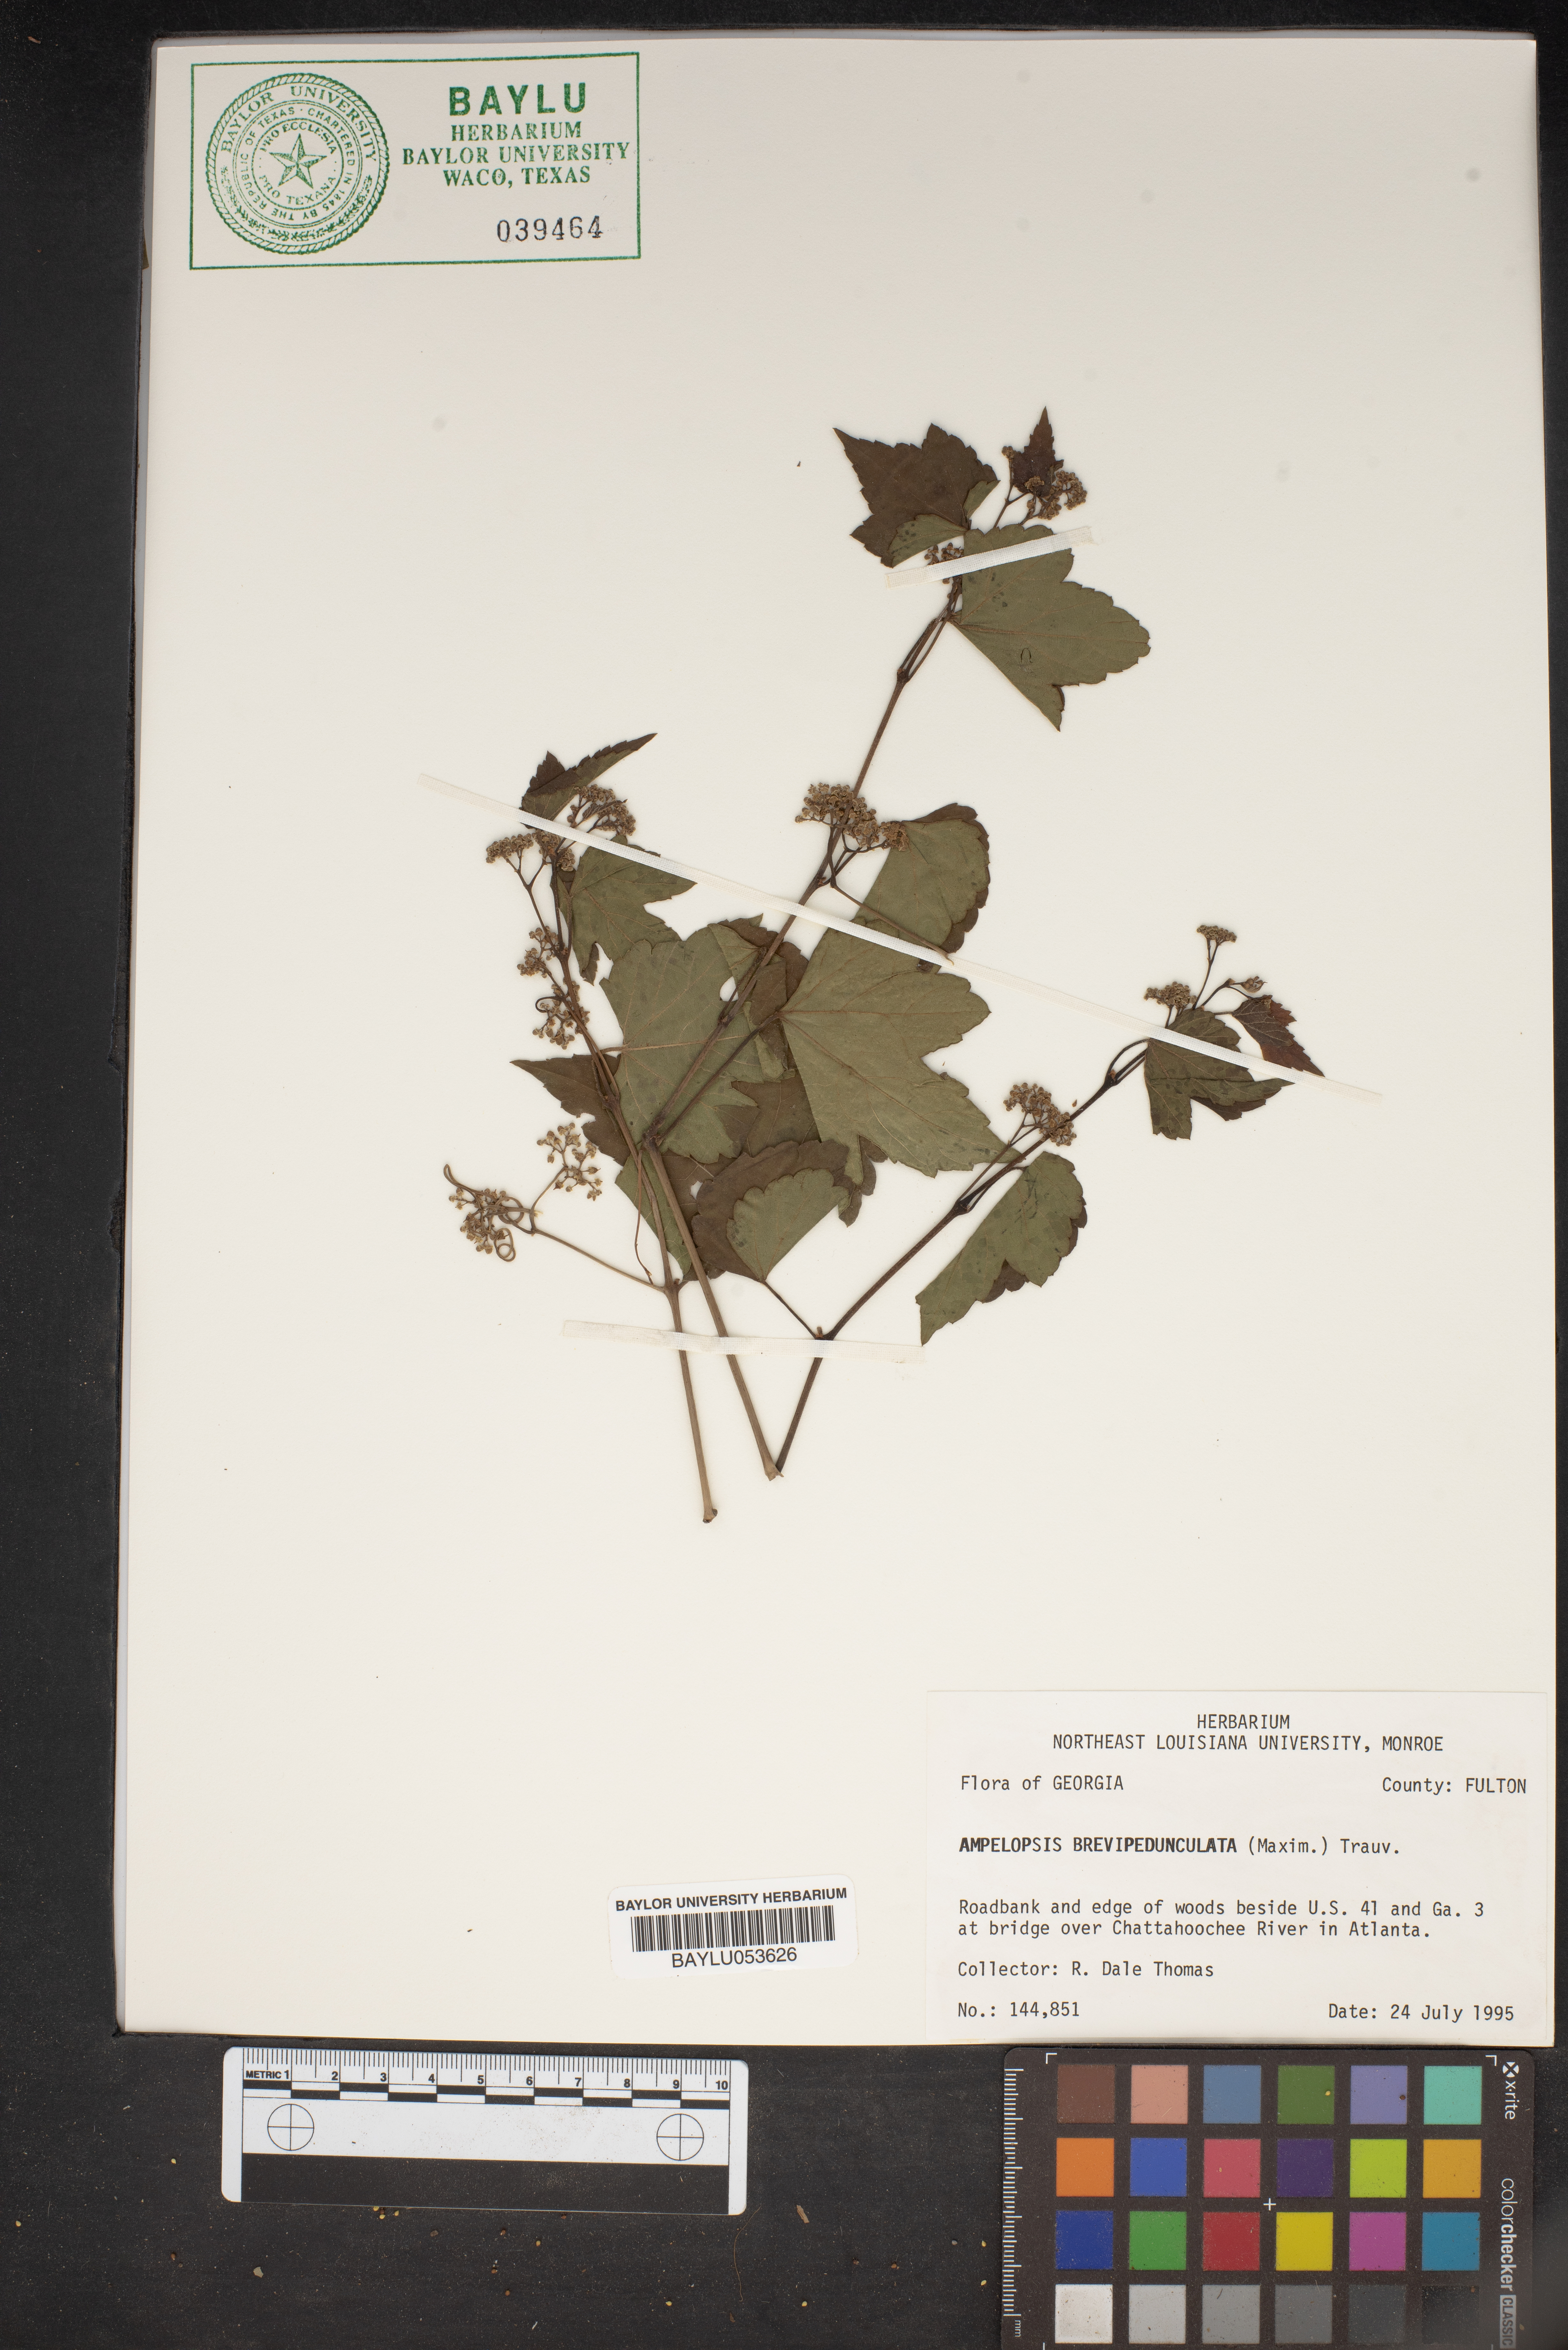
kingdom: Plantae
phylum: Tracheophyta
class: Magnoliopsida
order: Vitales
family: Vitaceae
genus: Ampelopsis
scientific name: Ampelopsis glandulosa
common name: Amur peppervine
